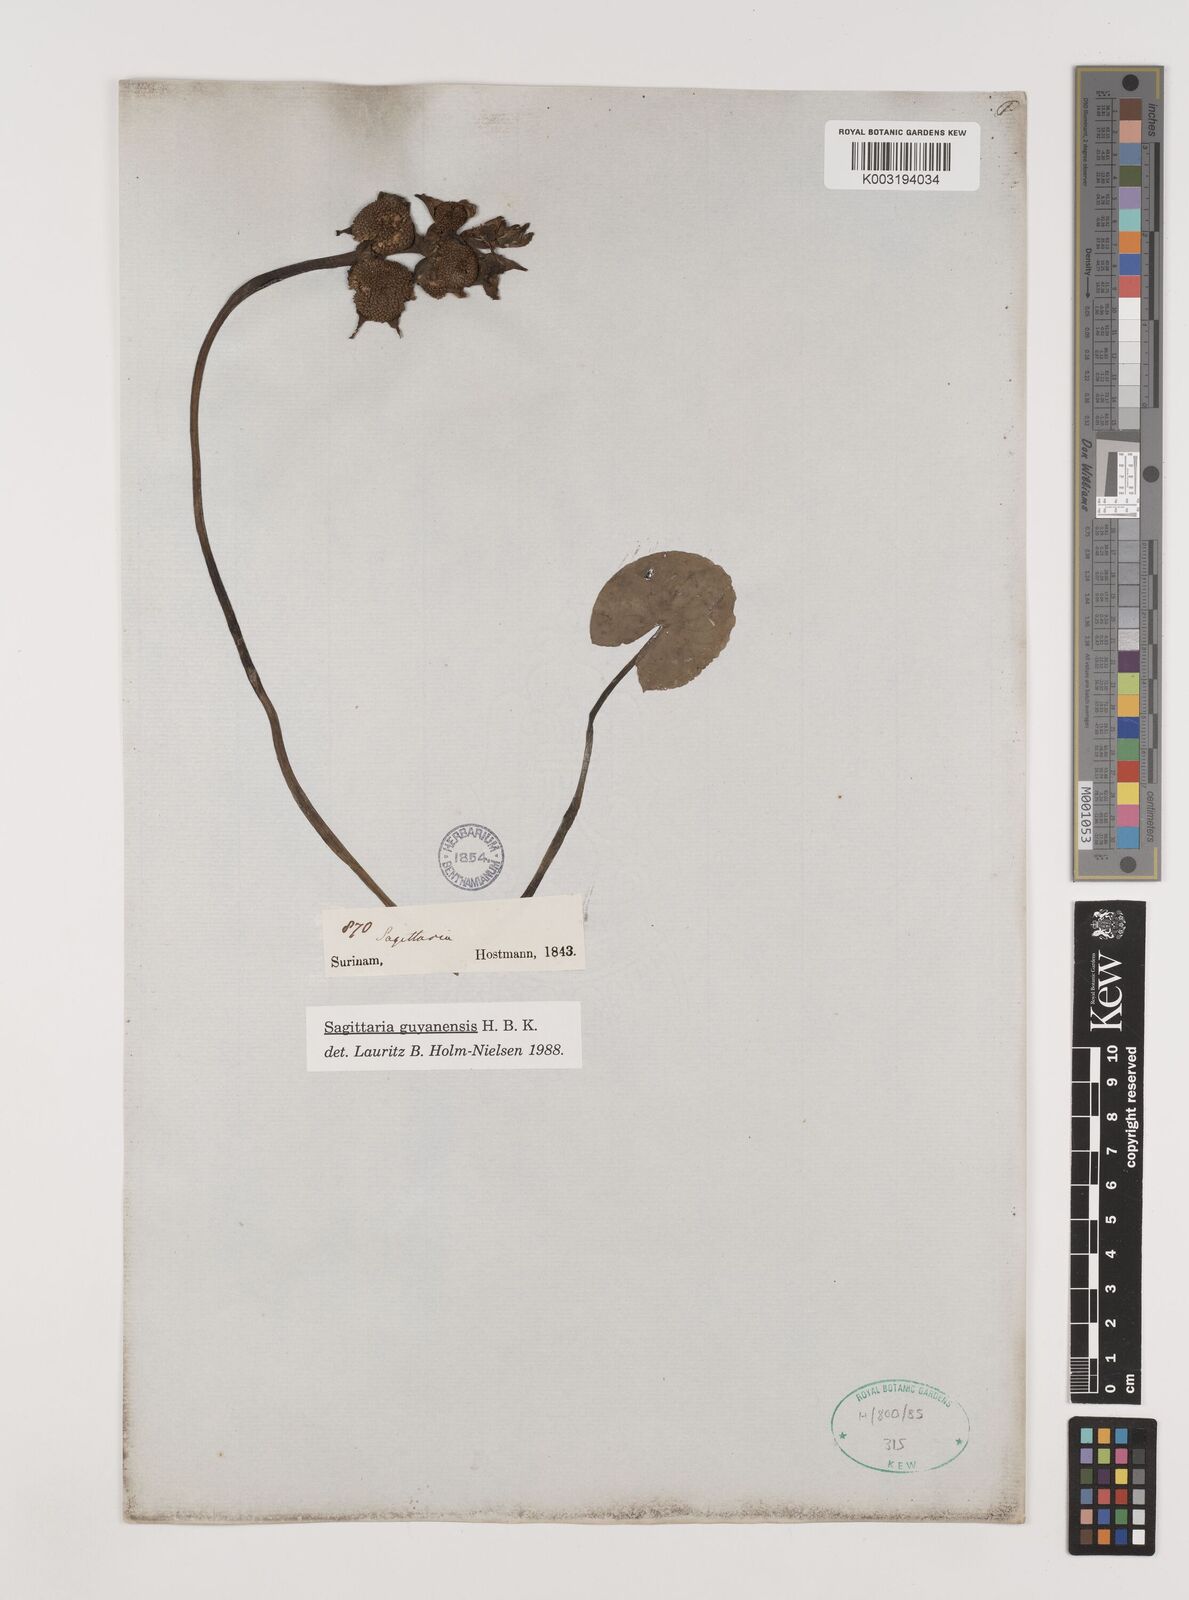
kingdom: Plantae
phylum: Tracheophyta
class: Liliopsida
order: Alismatales
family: Alismataceae
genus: Sagittaria
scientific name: Sagittaria guayanensis
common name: Guyanese arrowhead
